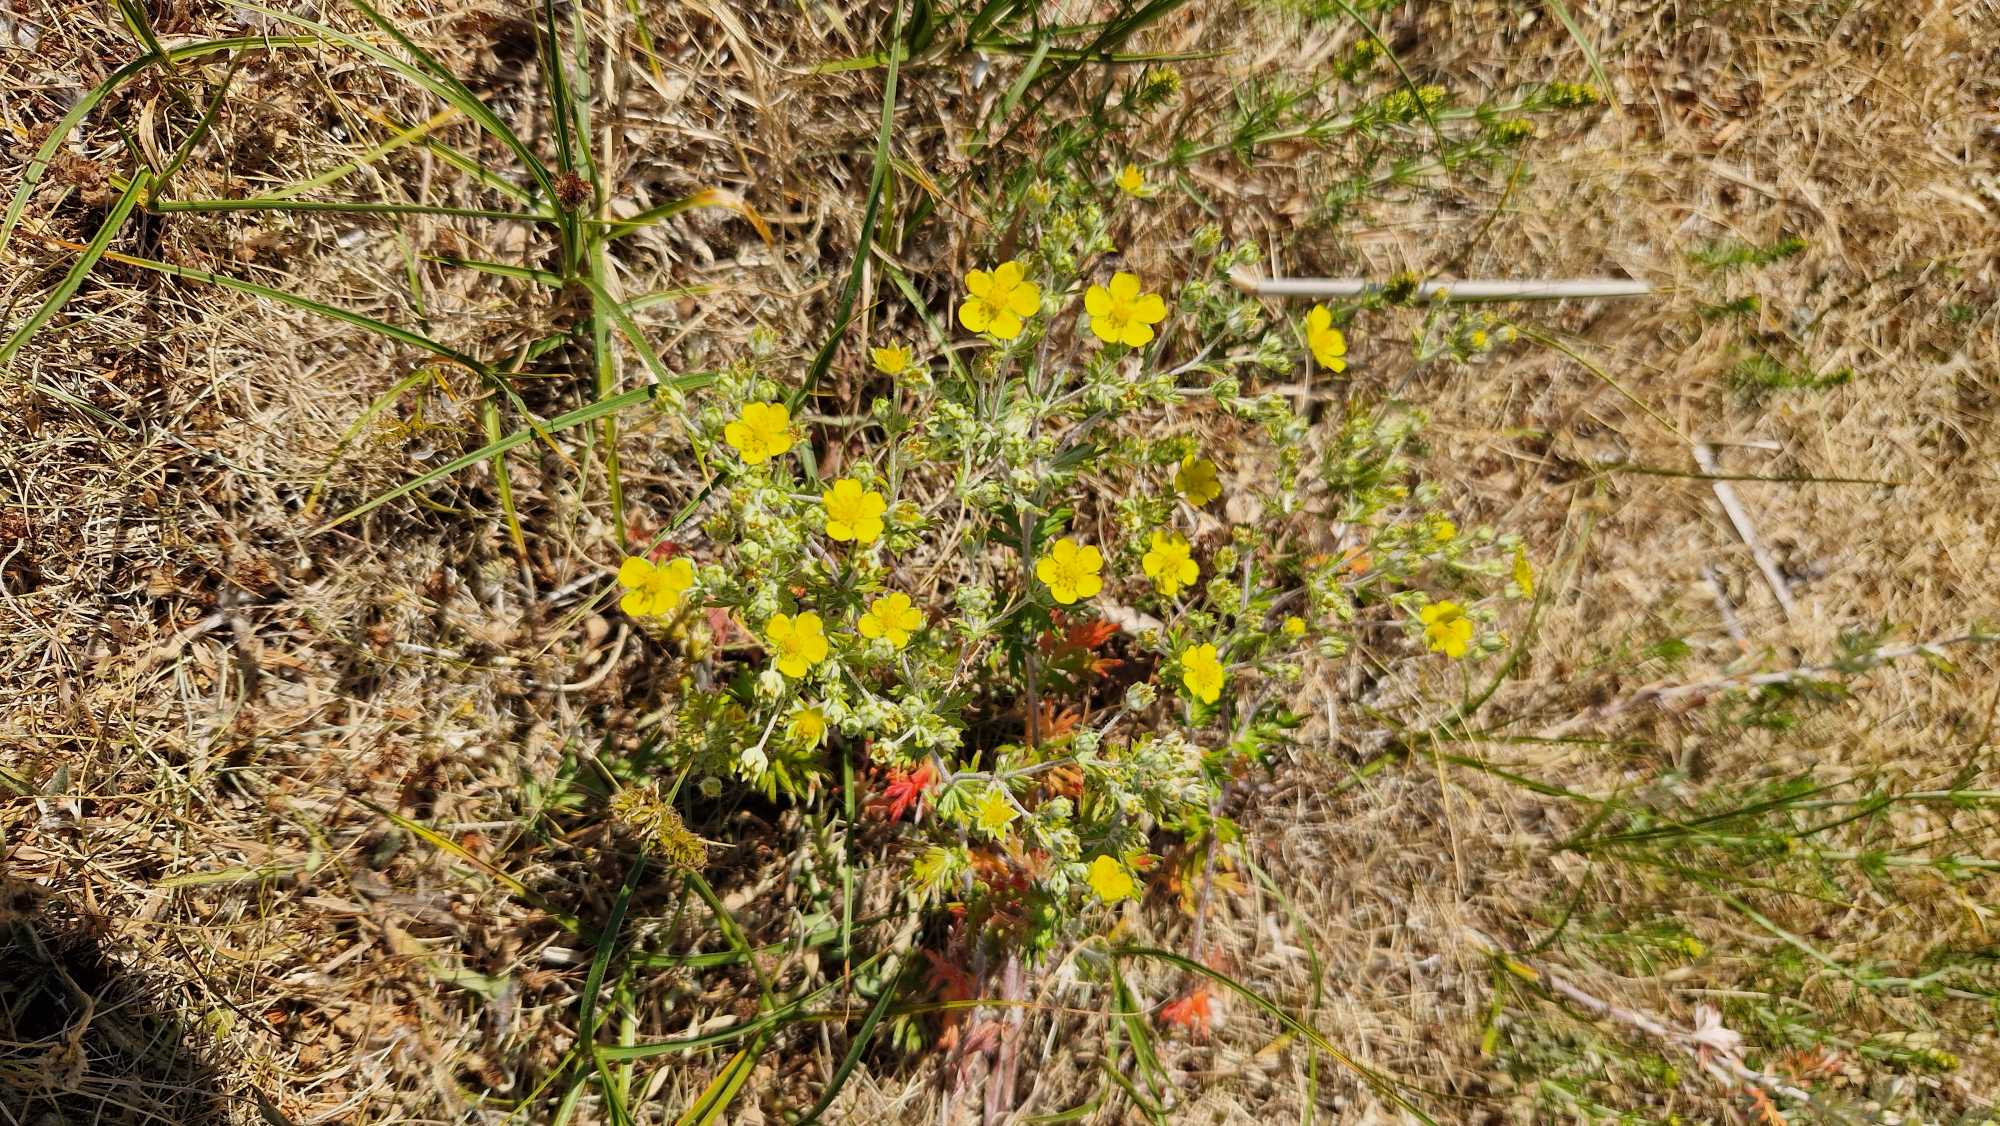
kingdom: Plantae
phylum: Tracheophyta
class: Magnoliopsida
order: Rosales
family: Rosaceae
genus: Potentilla
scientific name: Potentilla argentea
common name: Sølv-potentil
